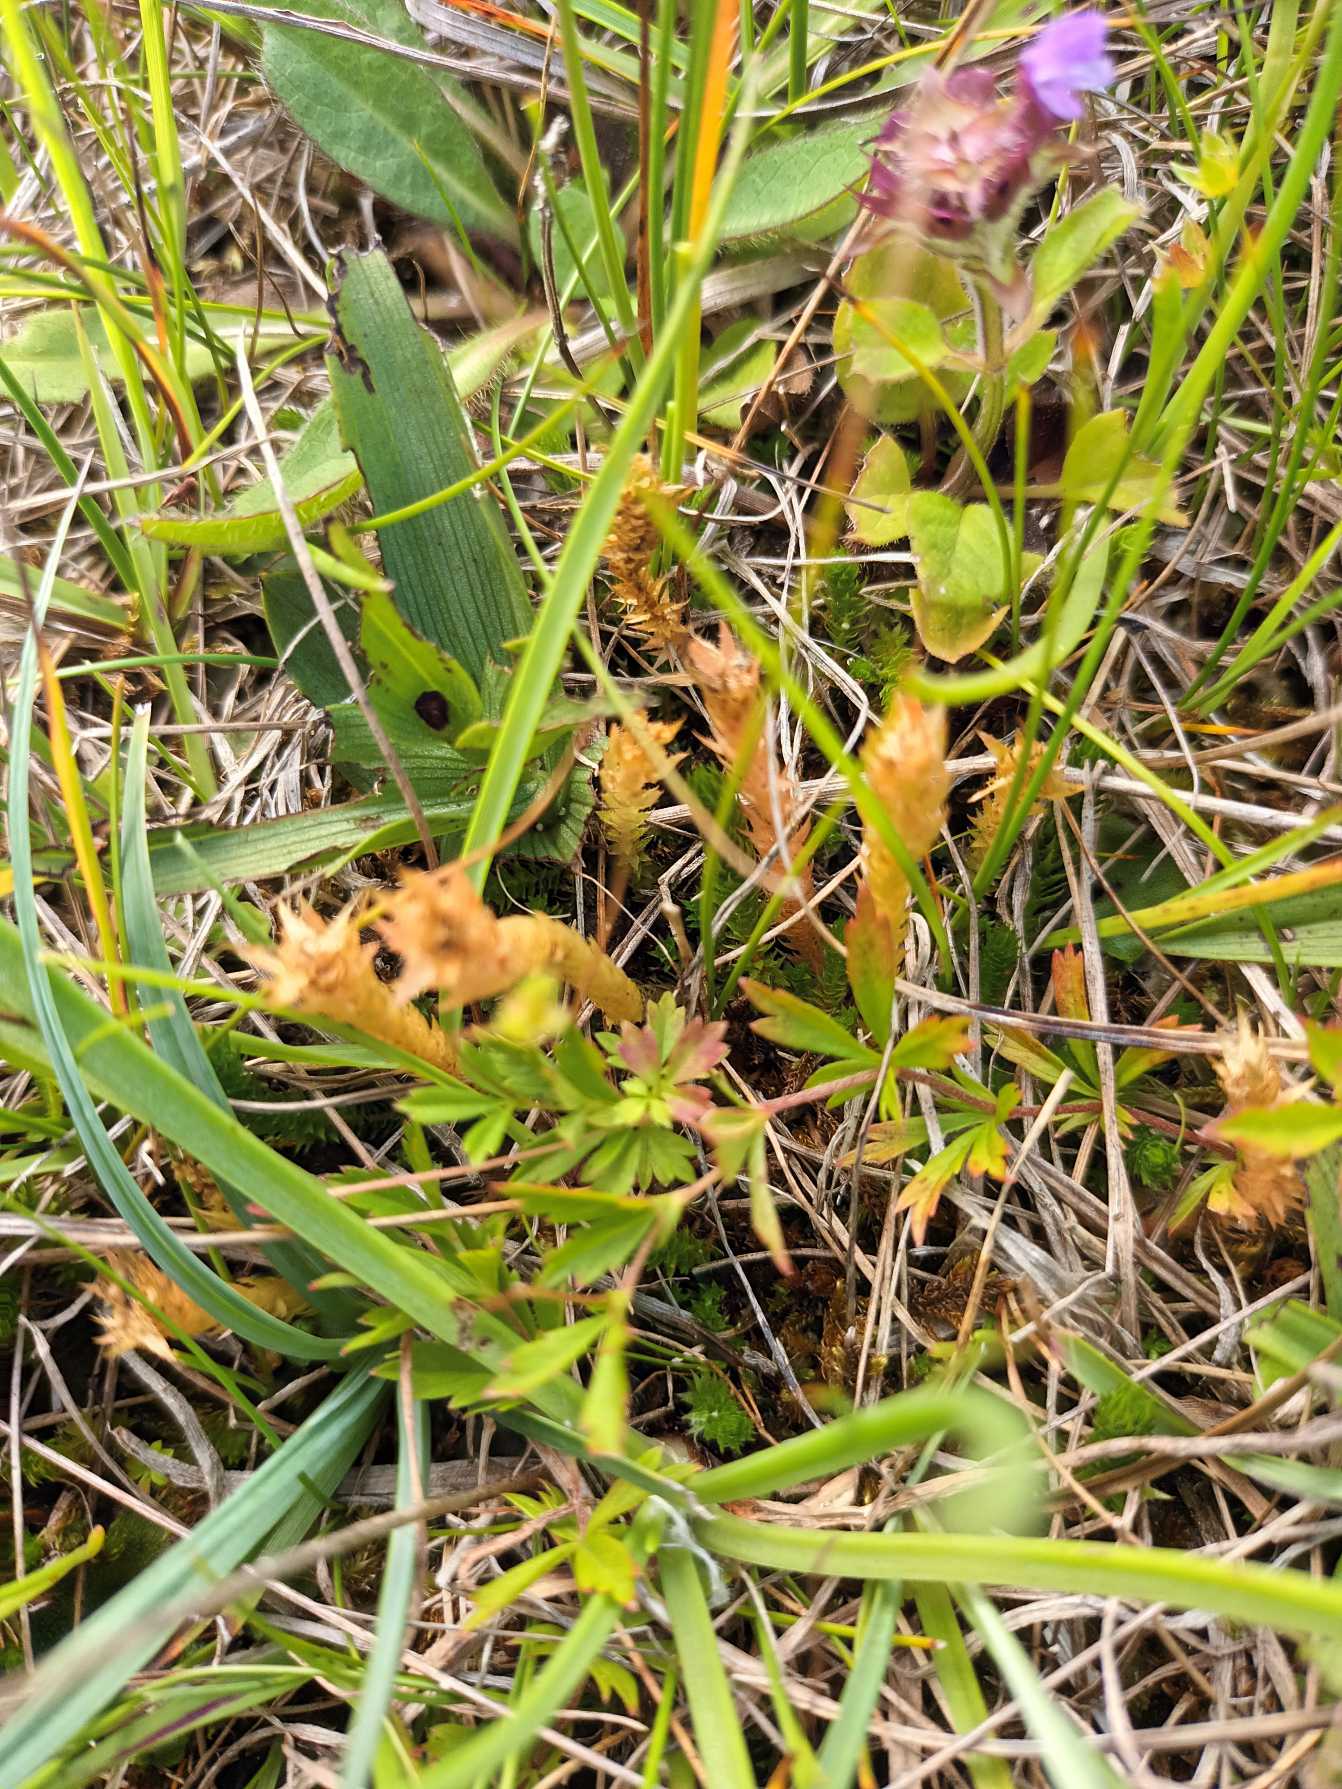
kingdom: Plantae
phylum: Tracheophyta
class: Lycopodiopsida
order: Selaginellales
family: Selaginellaceae
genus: Selaginella
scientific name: Selaginella selaginoides
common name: Dværgulvefod
